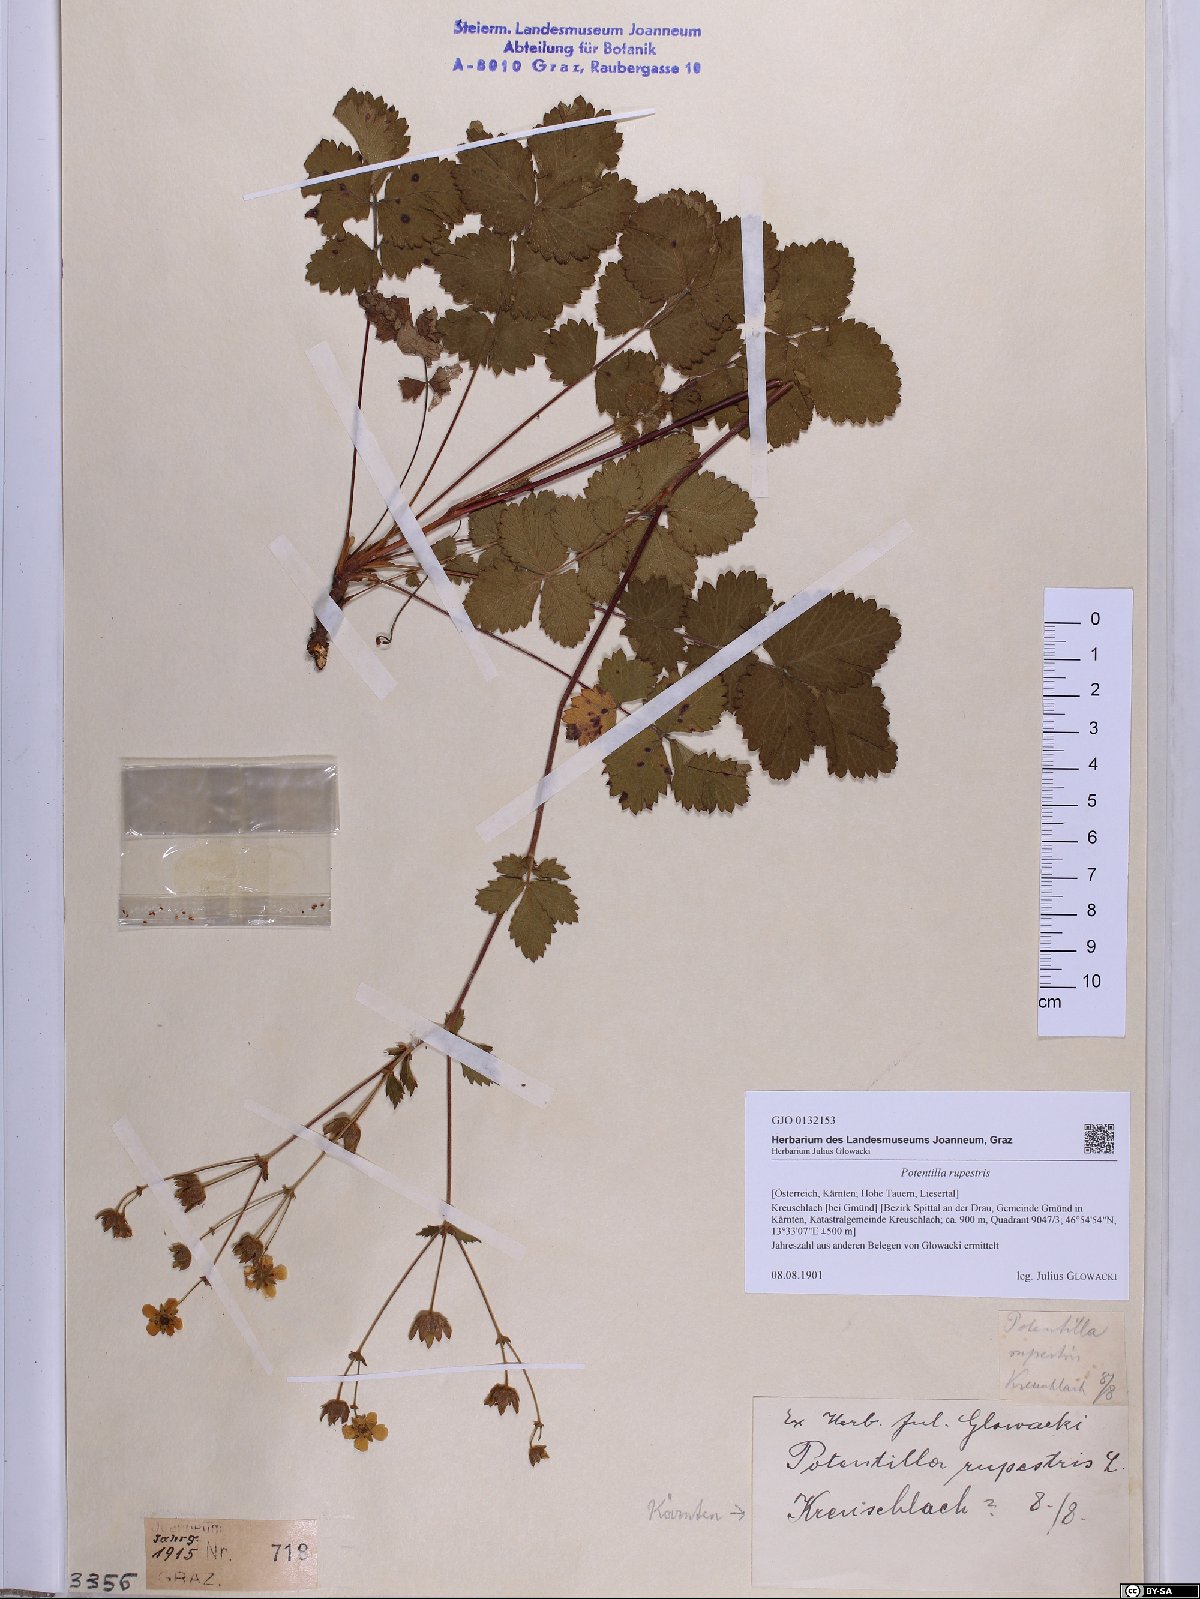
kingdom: Plantae
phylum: Tracheophyta
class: Magnoliopsida
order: Rosales
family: Rosaceae
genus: Drymocallis
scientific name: Drymocallis rupestris
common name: Rock cinquefoil
